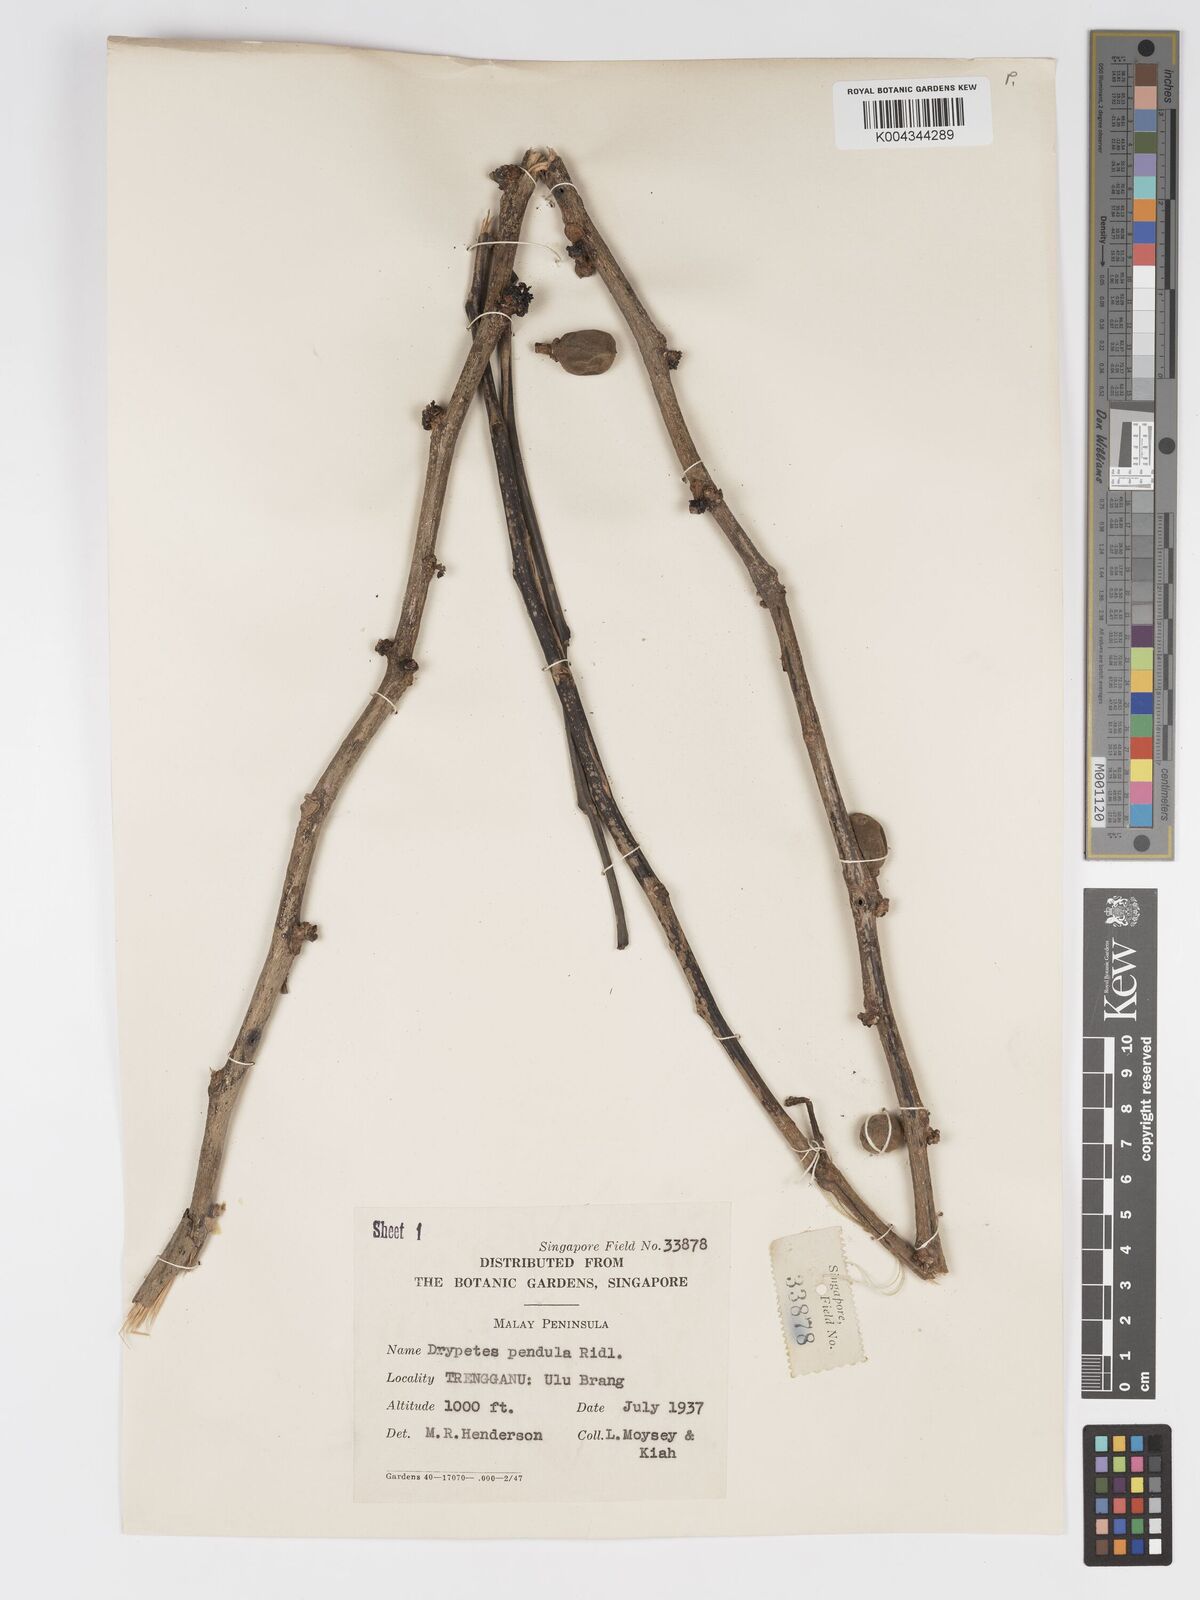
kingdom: Plantae
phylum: Tracheophyta
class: Magnoliopsida
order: Malpighiales
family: Putranjivaceae
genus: Drypetes
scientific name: Drypetes pendula
